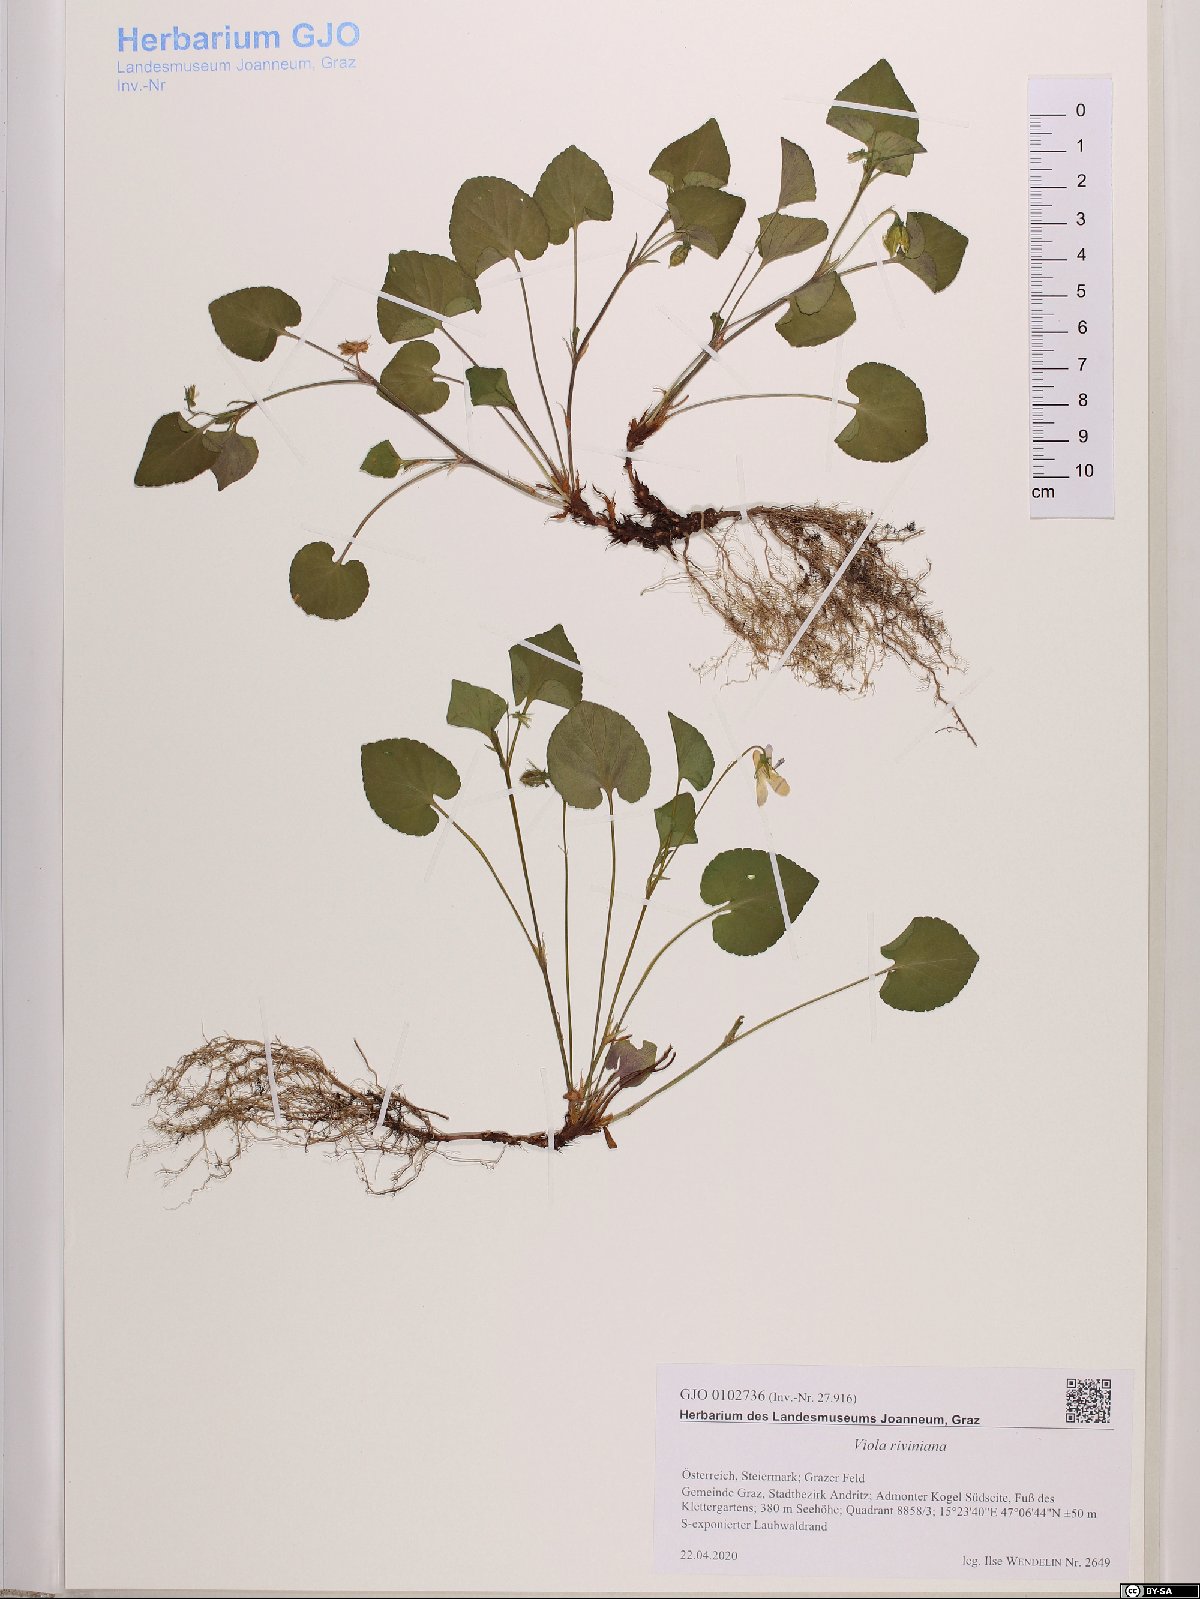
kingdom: Plantae
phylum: Tracheophyta
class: Magnoliopsida
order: Malpighiales
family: Violaceae
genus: Viola
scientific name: Viola riviniana
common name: Common dog-violet
